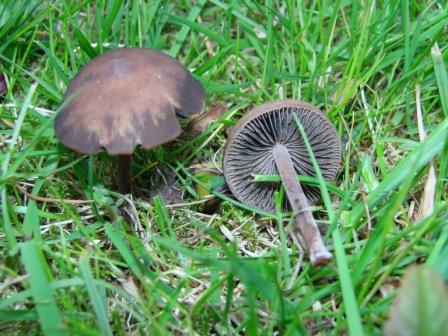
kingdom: Fungi
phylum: Basidiomycota
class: Agaricomycetes
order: Agaricales
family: Bolbitiaceae
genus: Panaeolus
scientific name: Panaeolus fimicola
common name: tidlig glanshat
